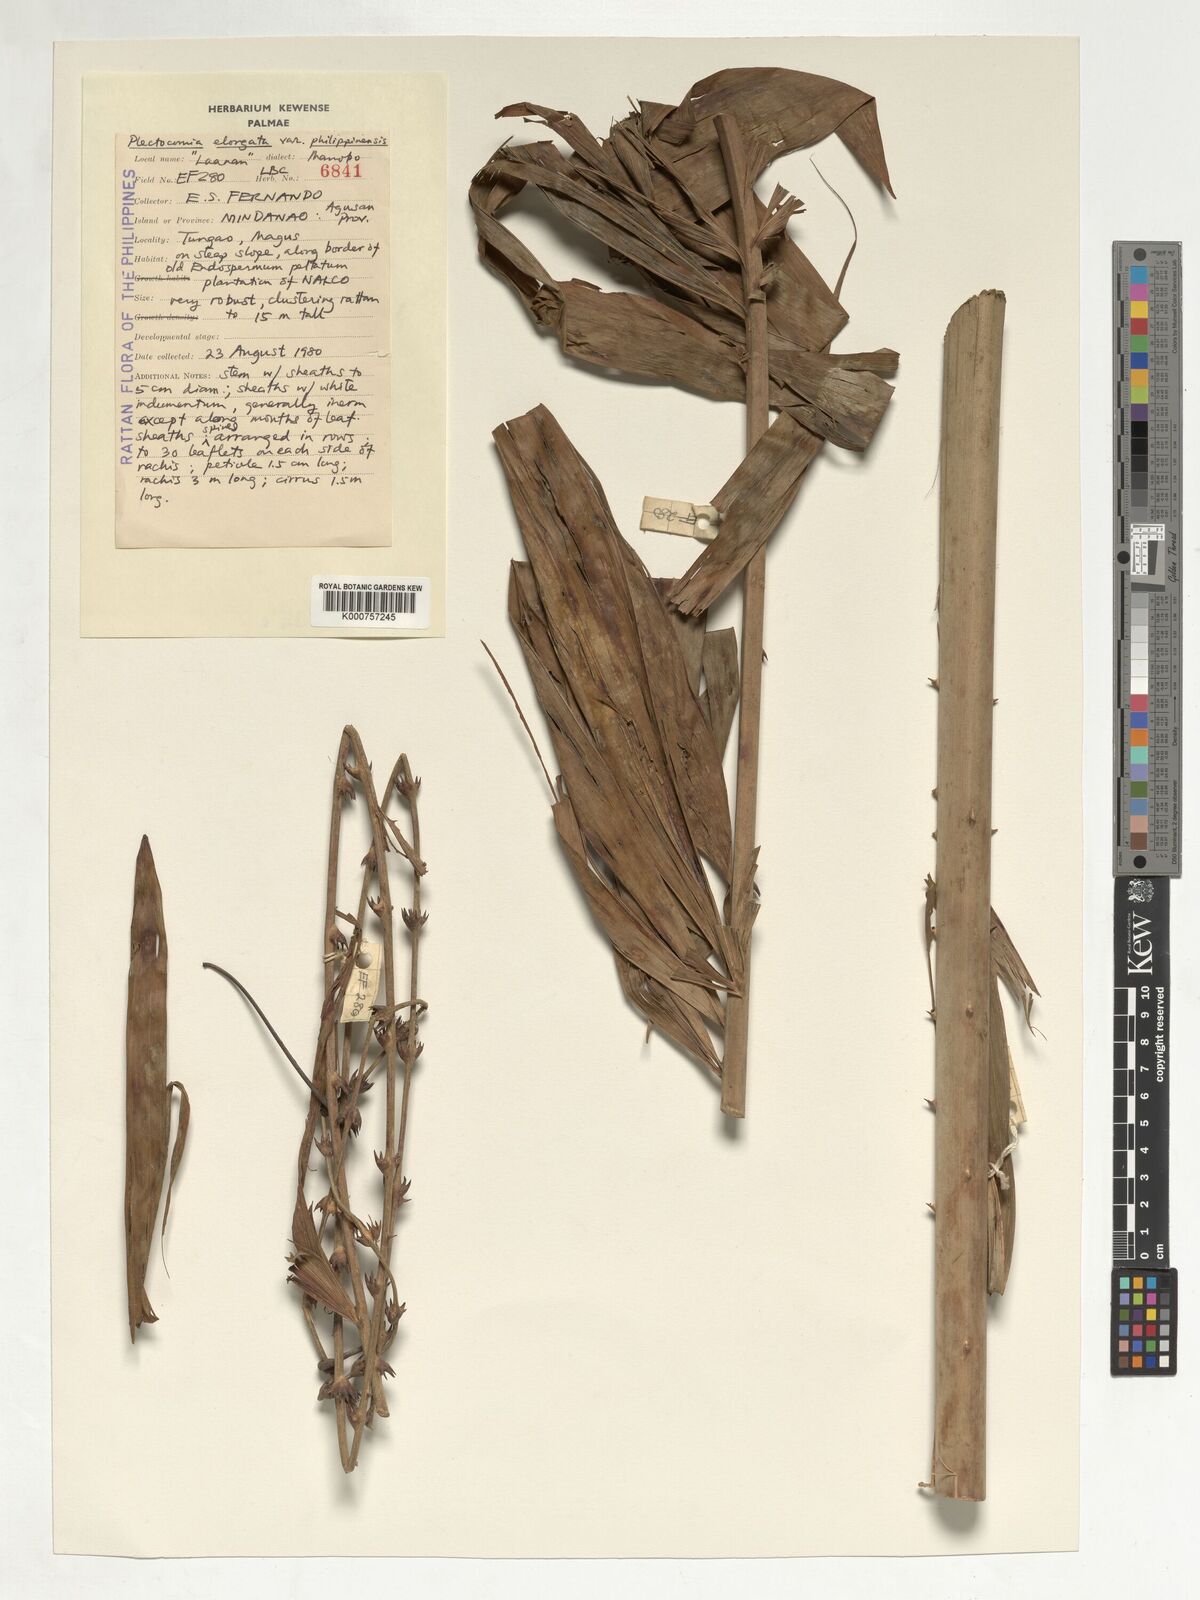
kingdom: Plantae
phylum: Tracheophyta
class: Liliopsida
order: Arecales
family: Arecaceae
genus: Plectocomia
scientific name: Plectocomia elongata
